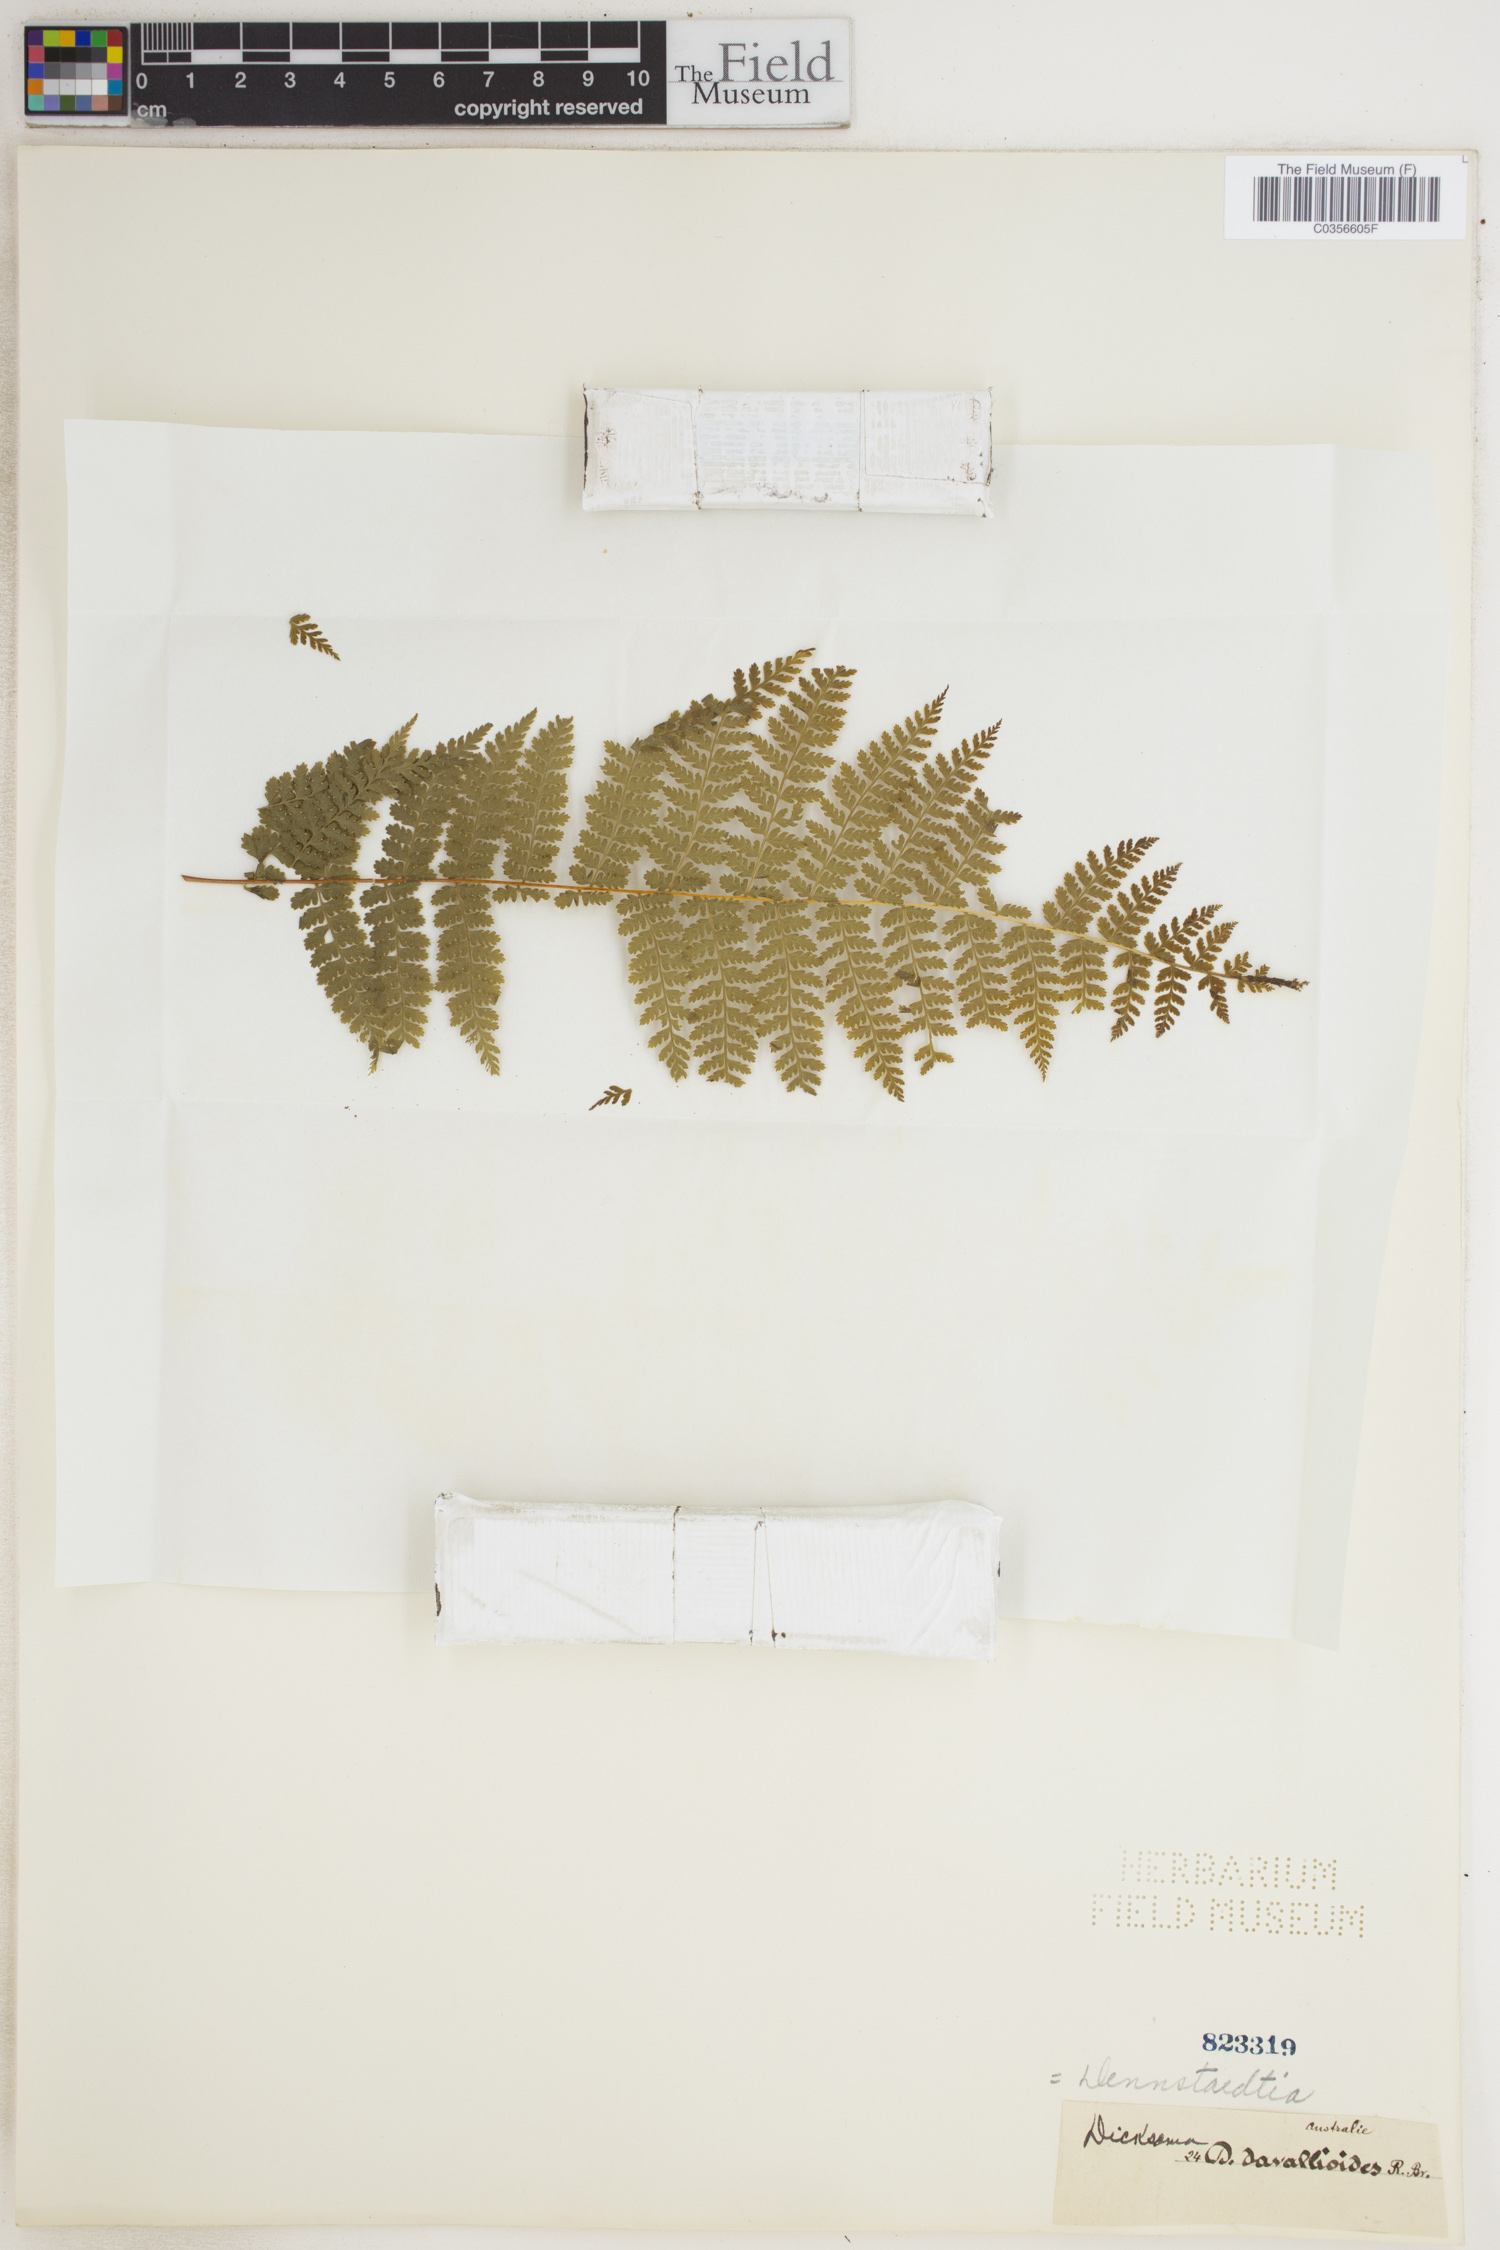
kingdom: Plantae
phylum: Tracheophyta
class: Polypodiopsida
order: Polypodiales
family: Dennstaedtiaceae
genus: Dennstaedtia
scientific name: Dennstaedtia davallioides
